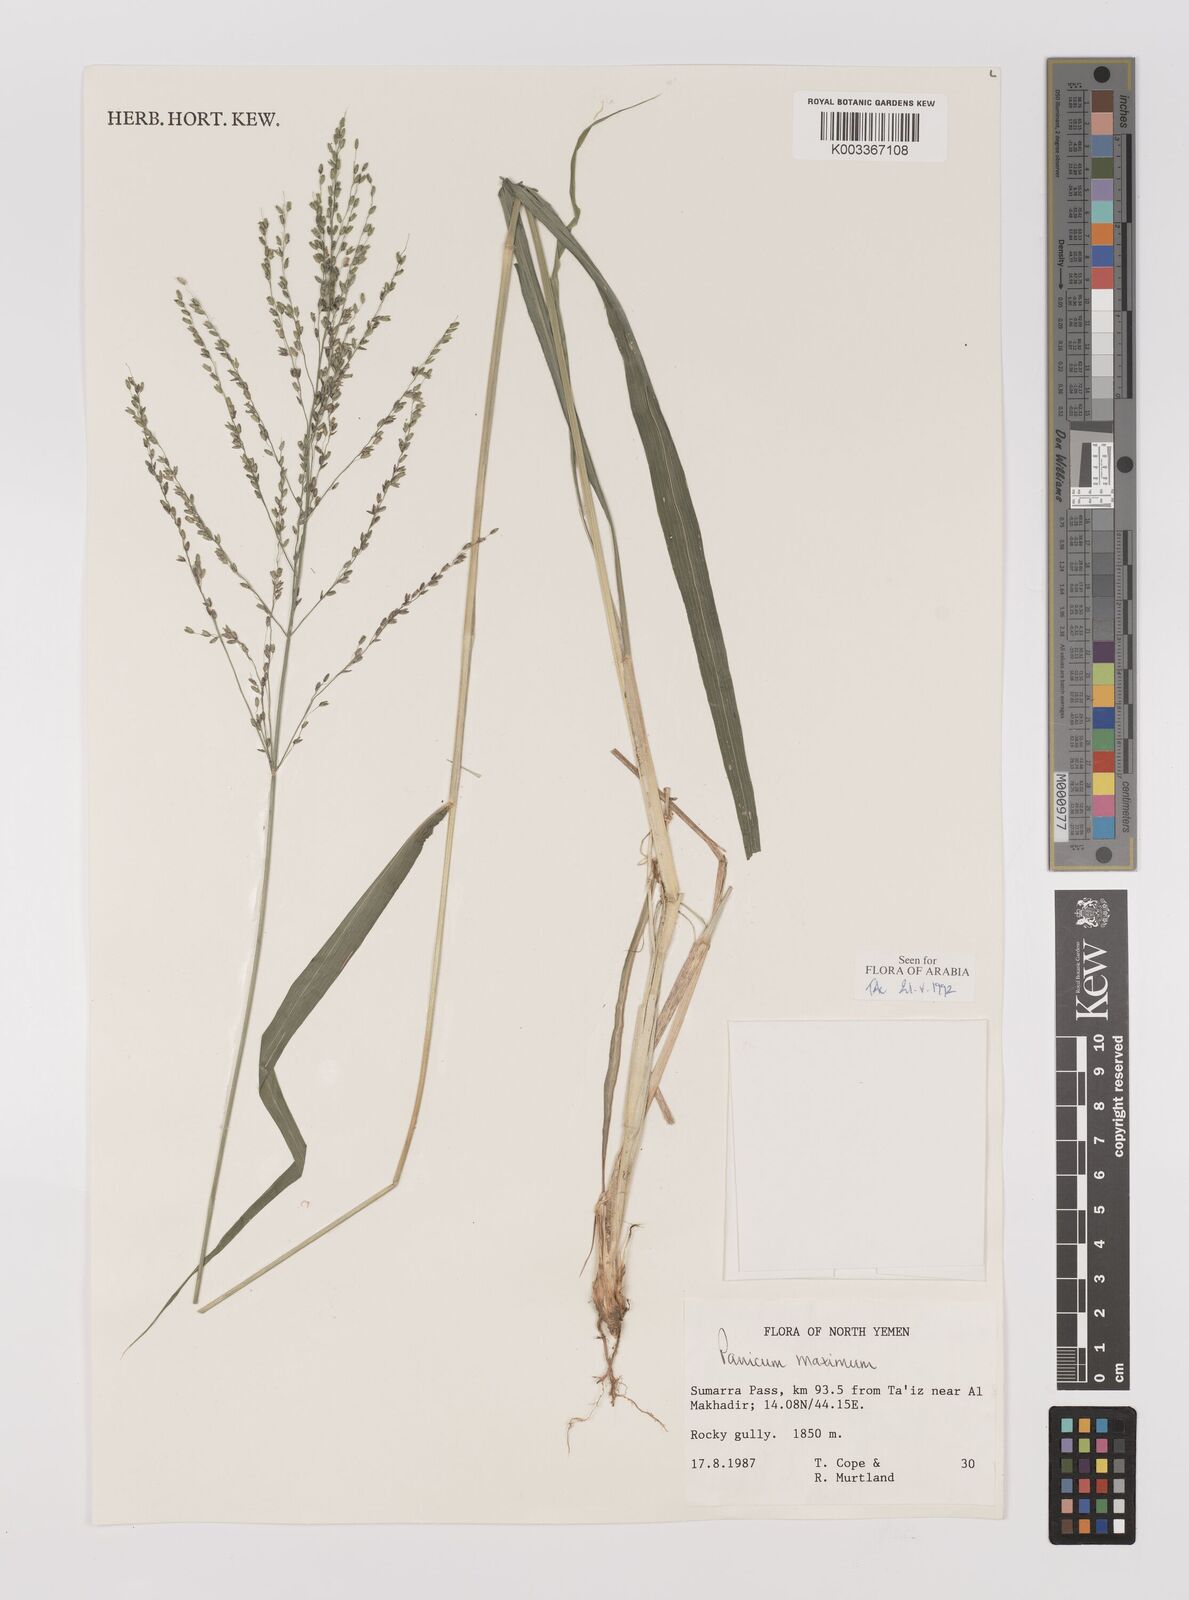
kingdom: Plantae
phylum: Tracheophyta
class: Liliopsida
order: Poales
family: Poaceae
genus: Megathyrsus
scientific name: Megathyrsus maximus
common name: Guineagrass
